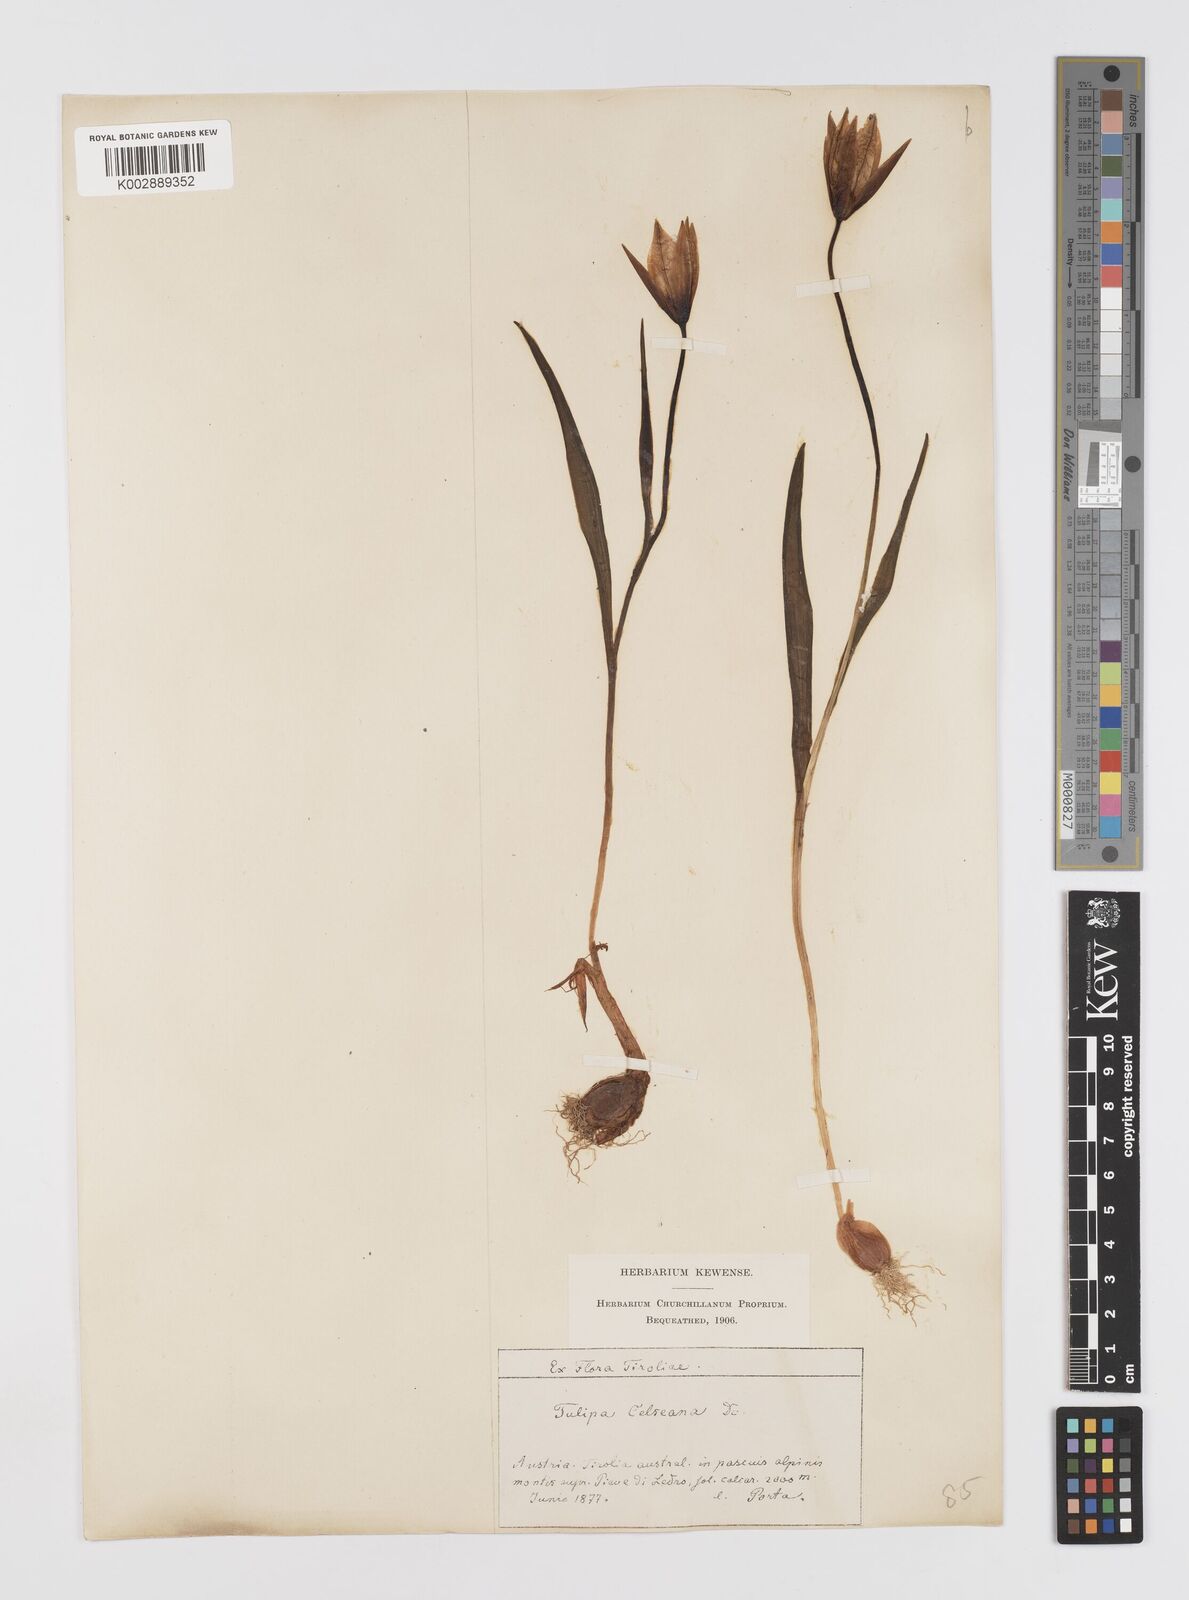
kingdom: Plantae
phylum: Tracheophyta
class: Liliopsida
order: Liliales
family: Liliaceae
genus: Tulipa
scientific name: Tulipa sylvestris
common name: Wild tulip
